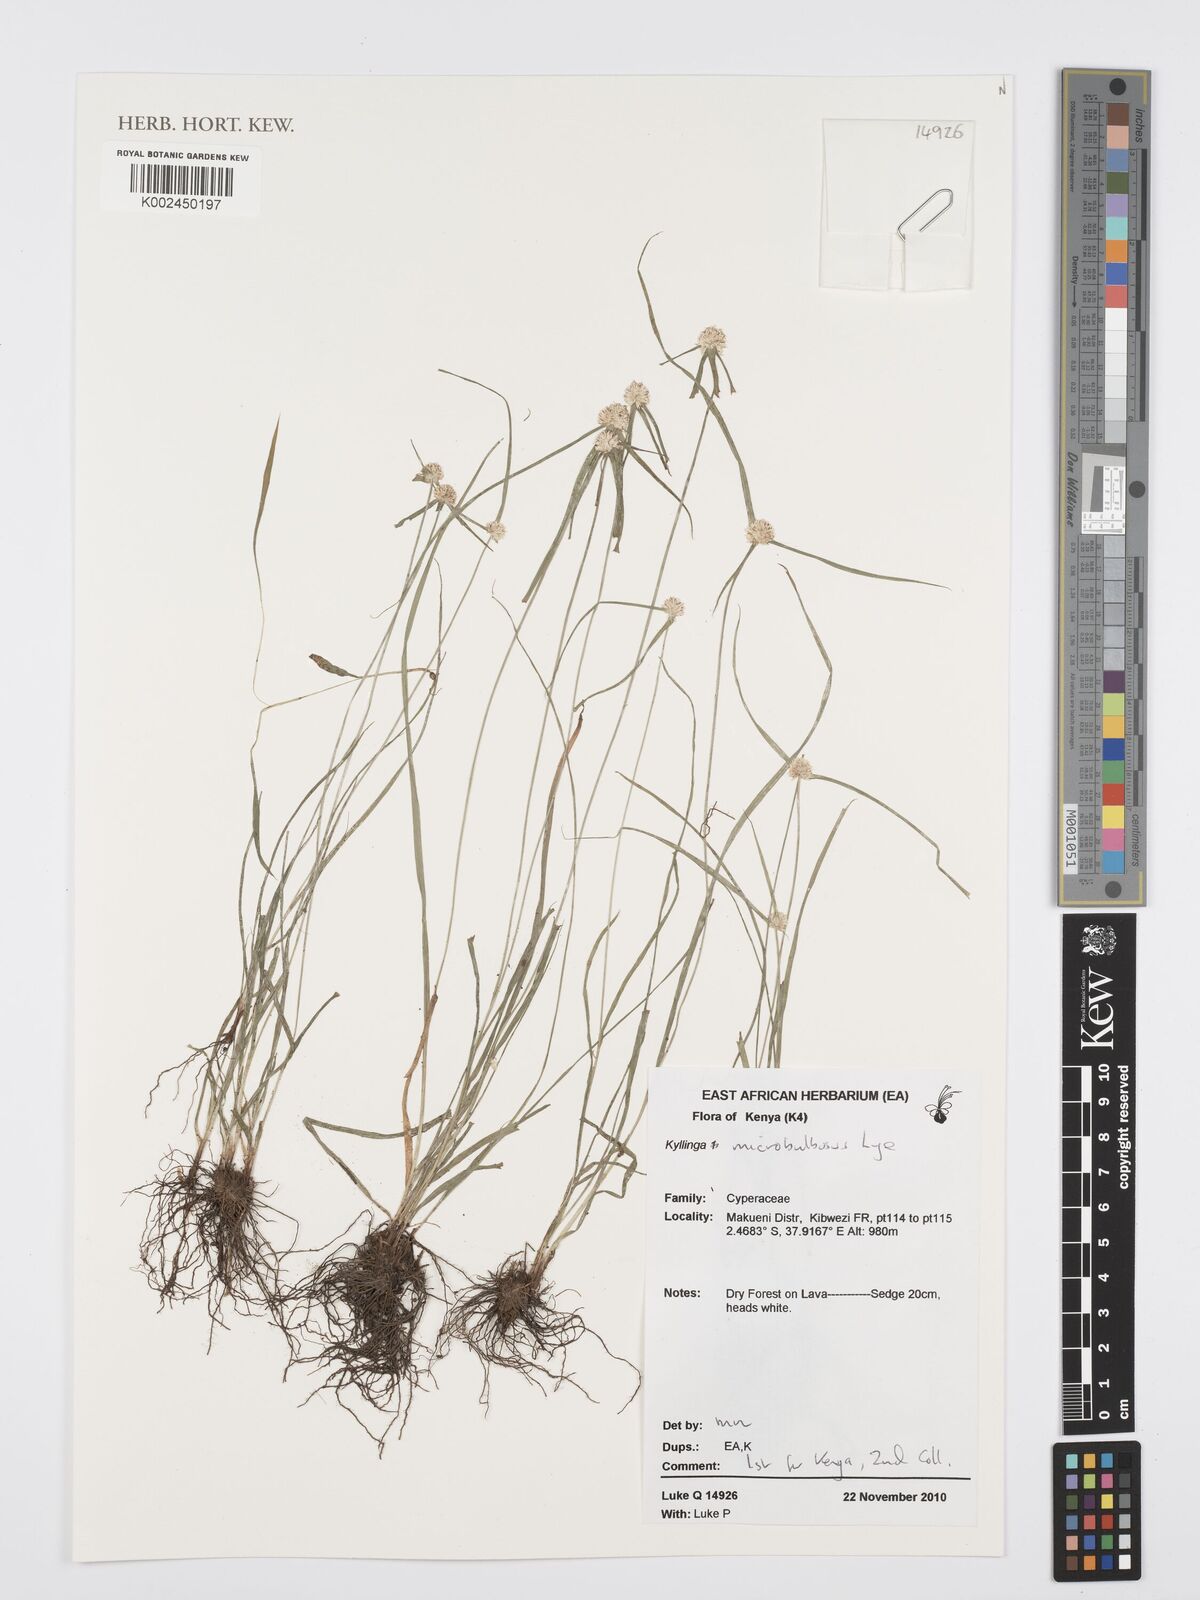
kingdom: Plantae
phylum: Tracheophyta
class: Liliopsida
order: Poales
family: Cyperaceae
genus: Cyperus
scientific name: Cyperus microbulbosus
